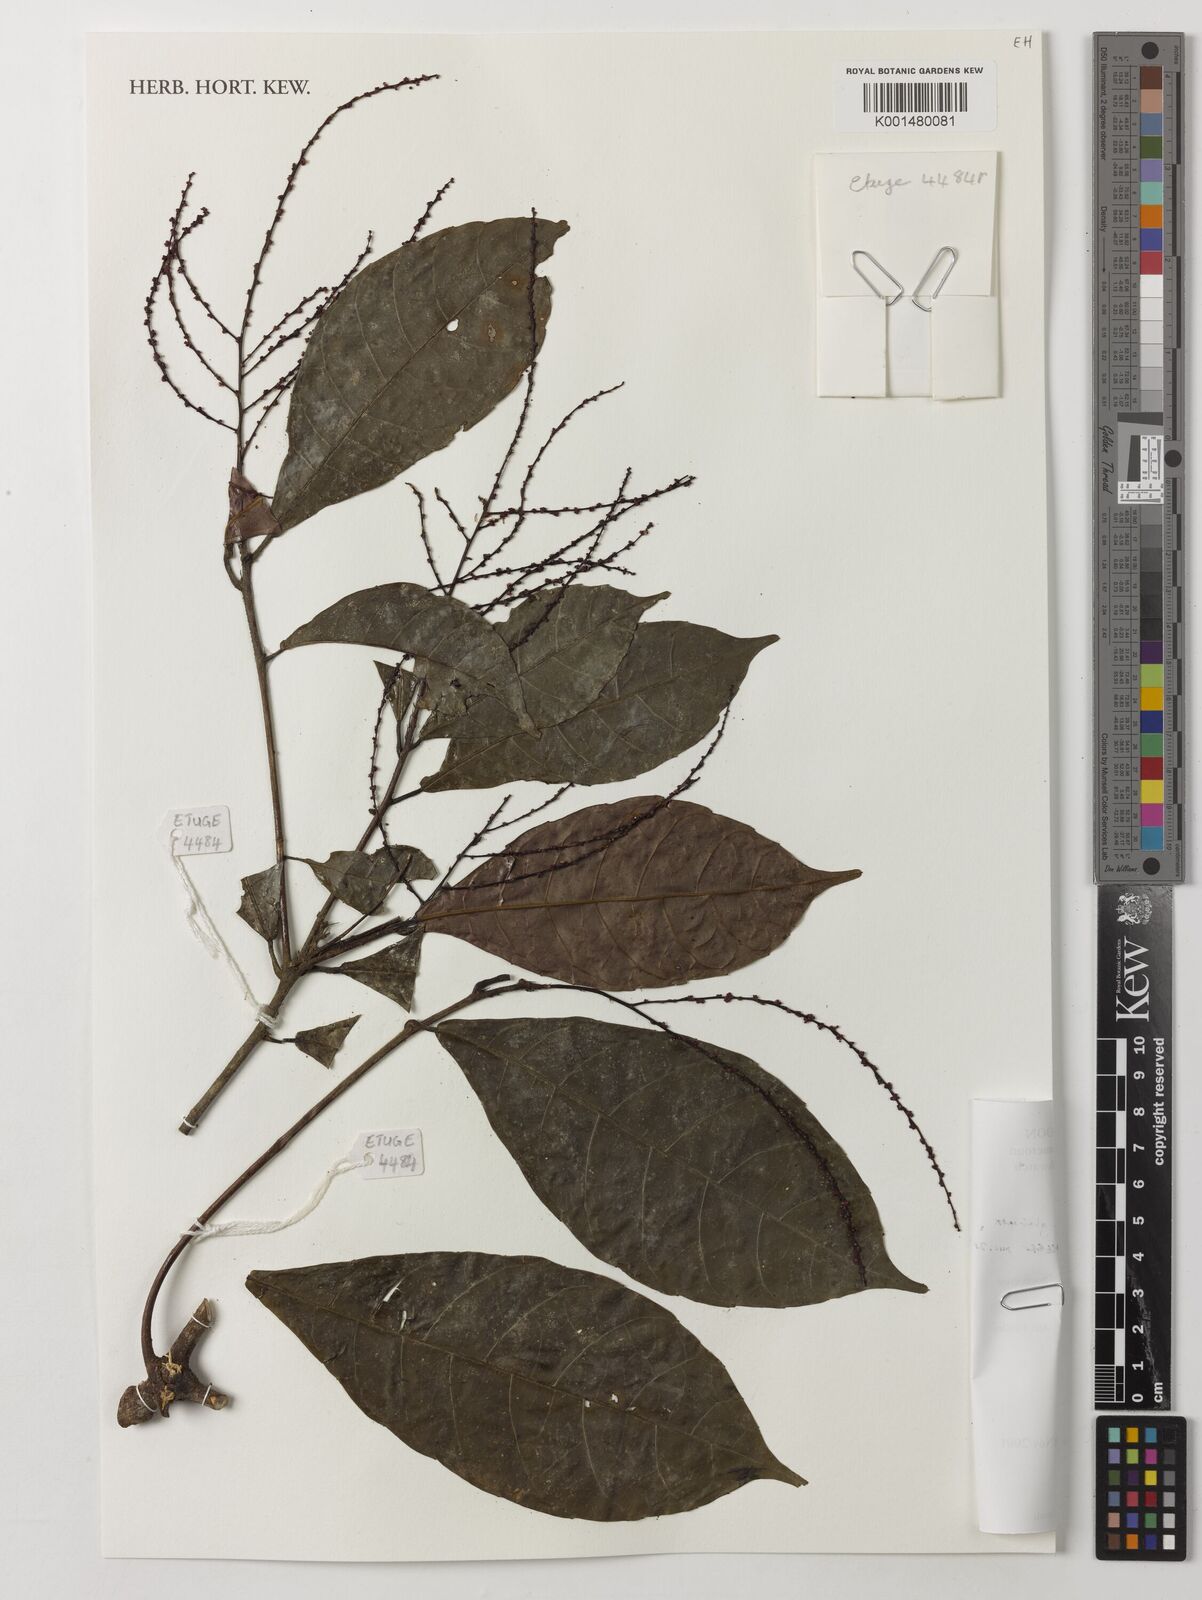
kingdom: Plantae
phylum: Tracheophyta
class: Magnoliopsida
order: Malpighiales
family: Euphorbiaceae
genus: Alchornea
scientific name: Alchornea hirtella
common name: Forest bead-string
